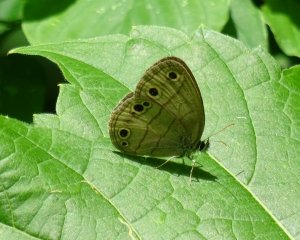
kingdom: Animalia
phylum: Arthropoda
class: Insecta
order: Lepidoptera
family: Nymphalidae
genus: Euptychia
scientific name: Euptychia cymela
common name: Little Wood Satyr
